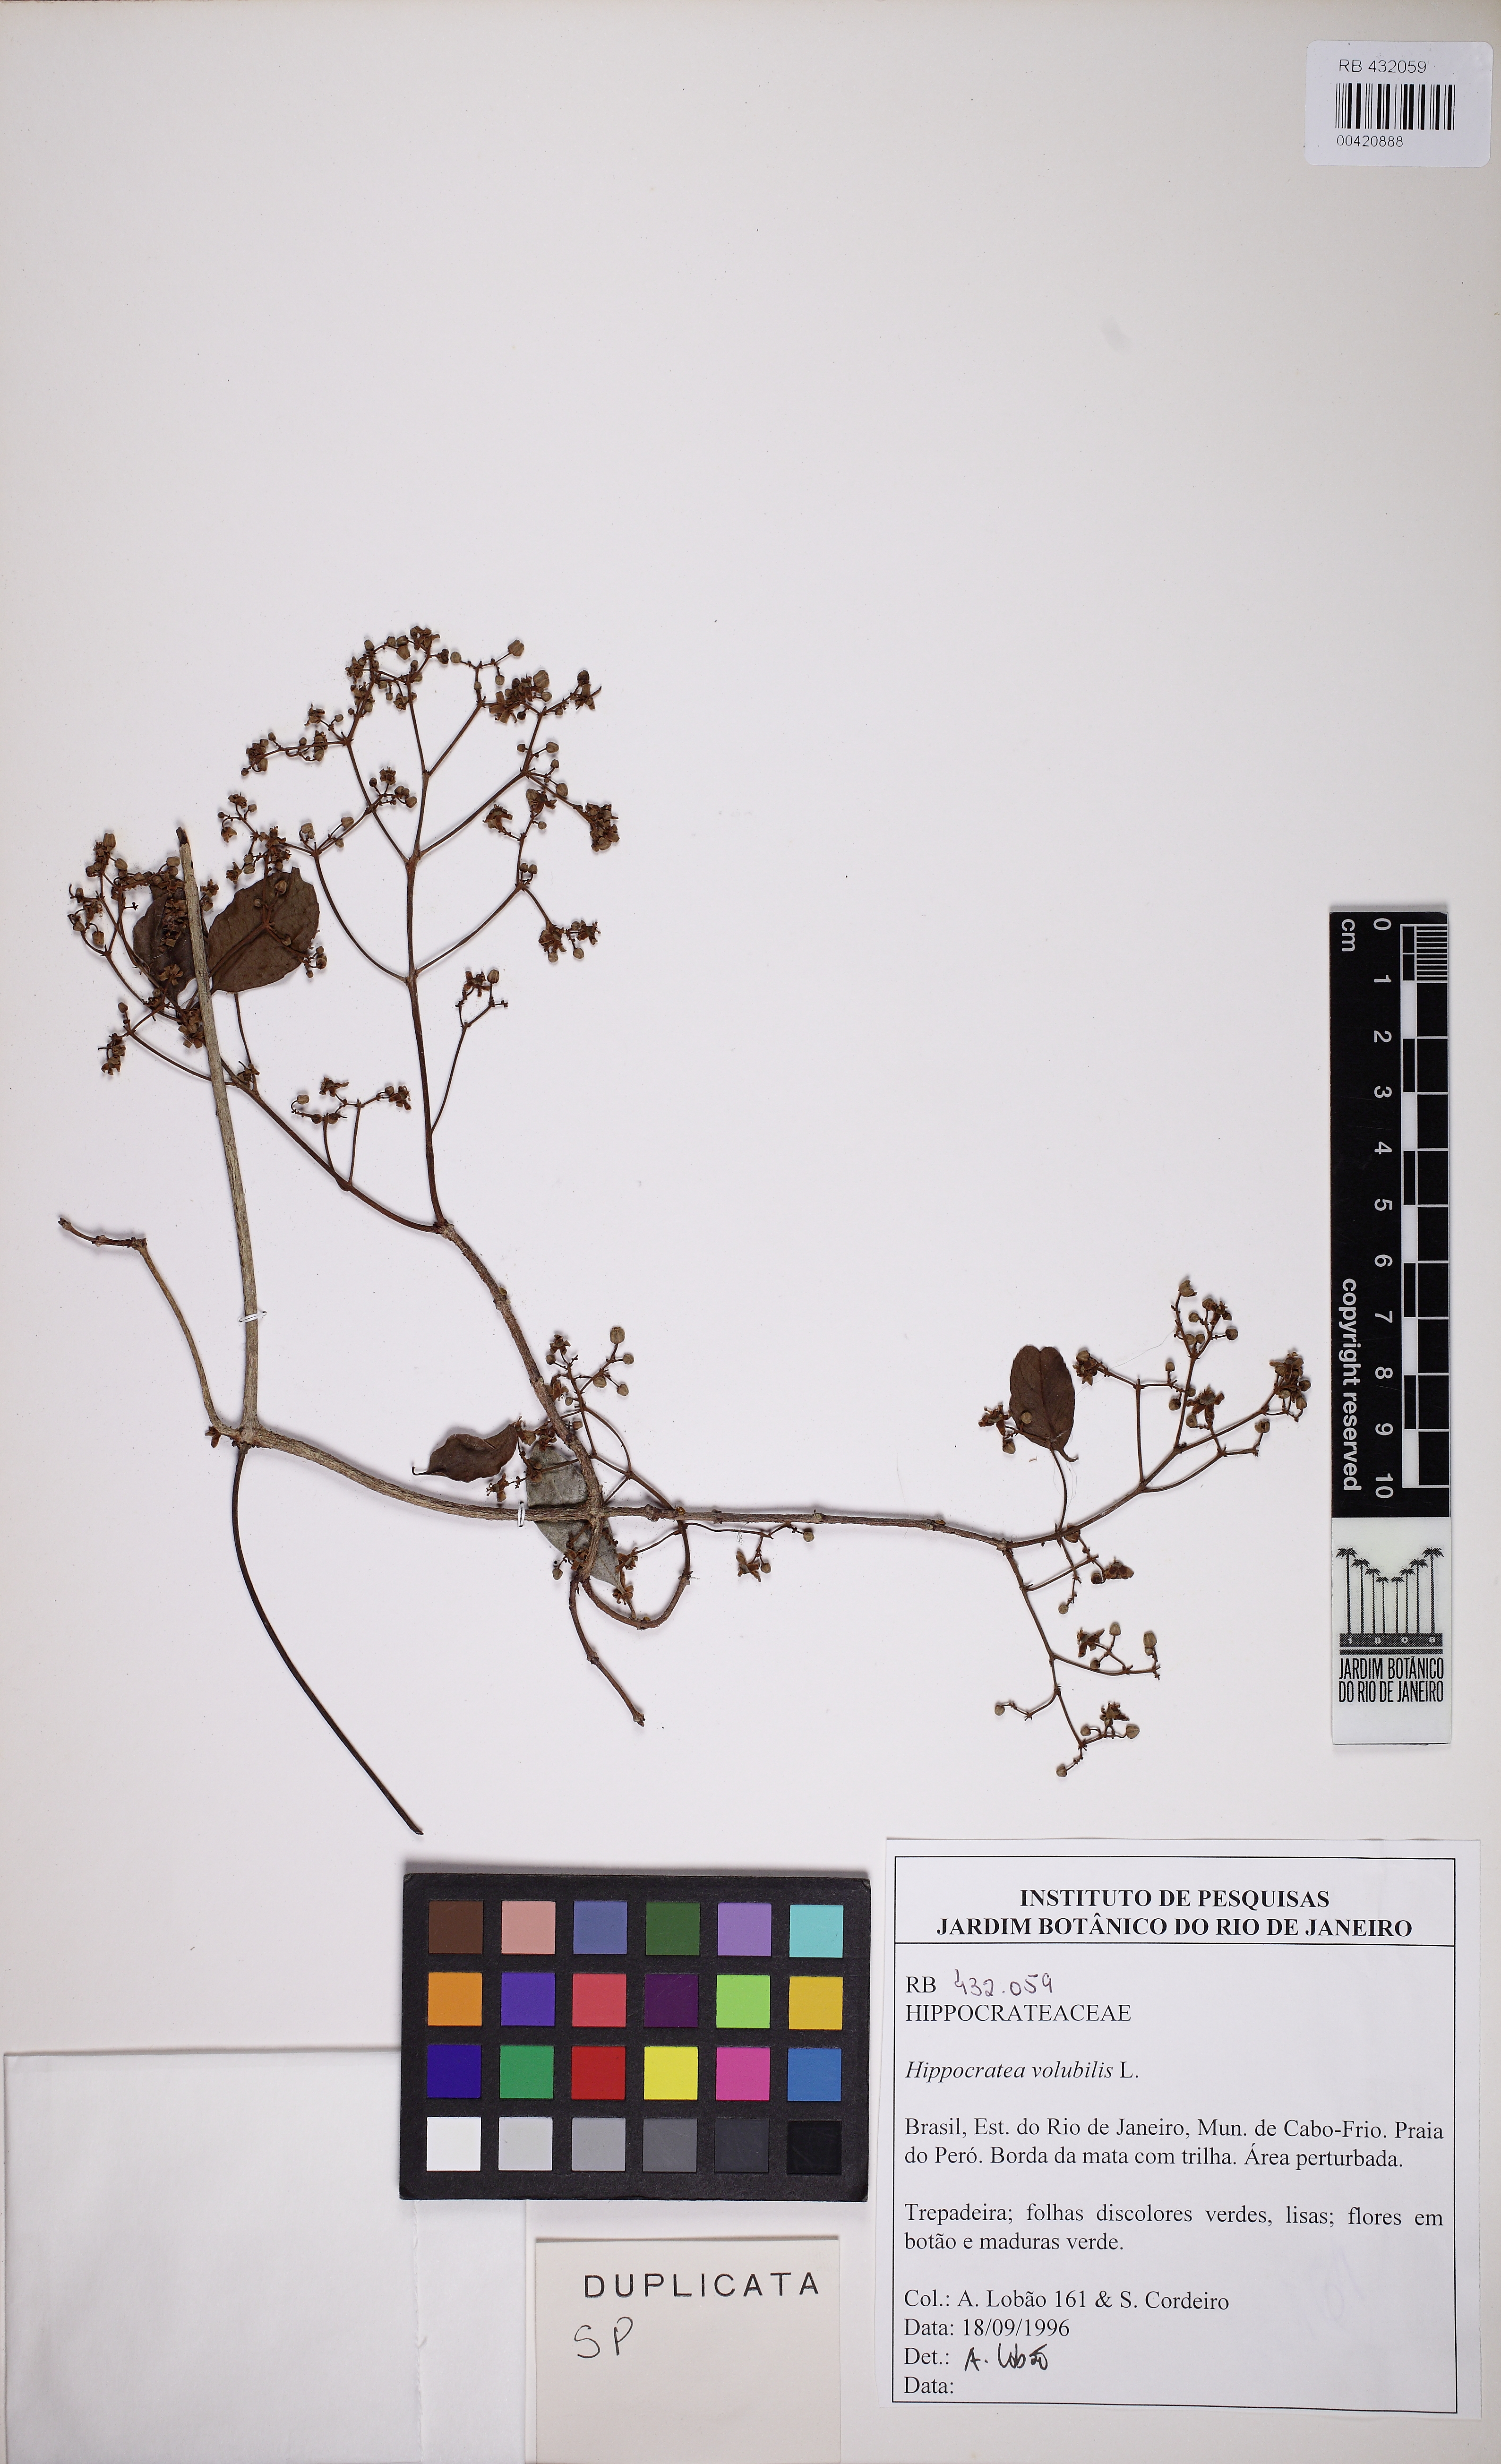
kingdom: Plantae
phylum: Tracheophyta
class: Magnoliopsida
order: Celastrales
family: Celastraceae
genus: Hippocratea
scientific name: Hippocratea volubilis
